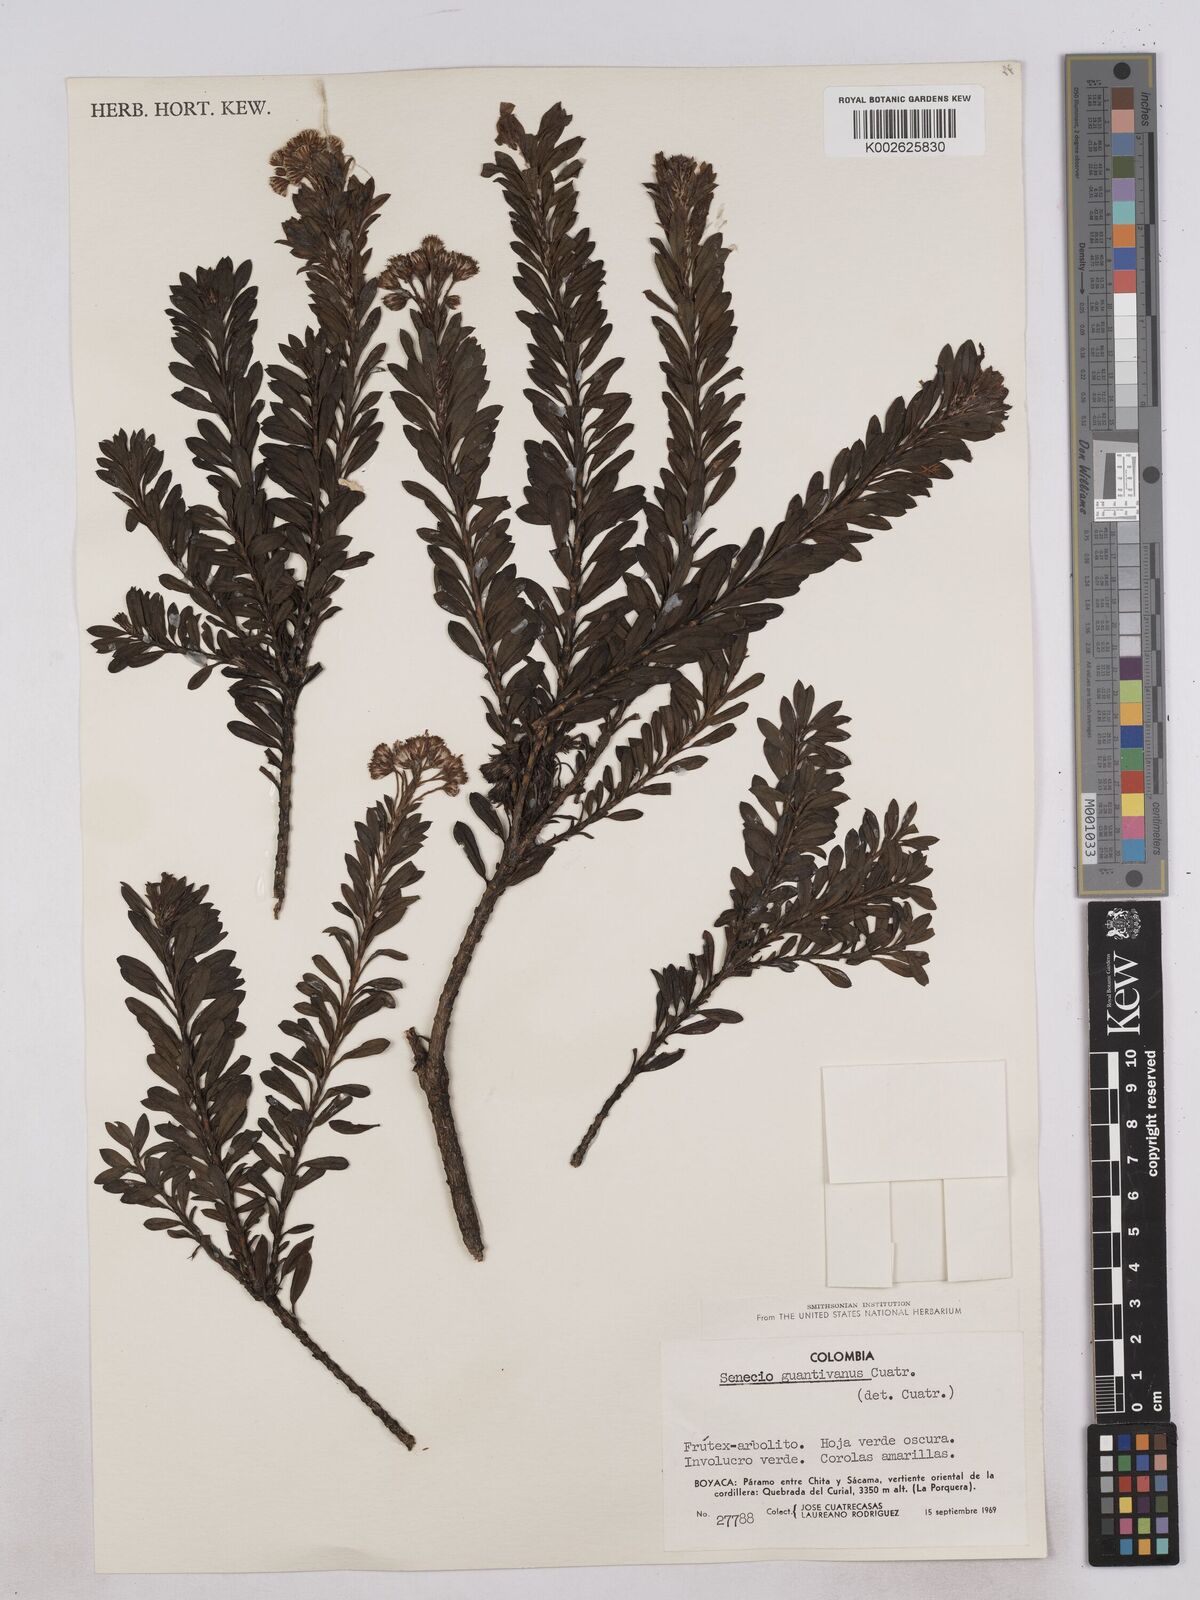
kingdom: Plantae
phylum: Tracheophyta
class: Magnoliopsida
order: Asterales
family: Asteraceae
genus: Monticalia
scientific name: Monticalia pulchella
